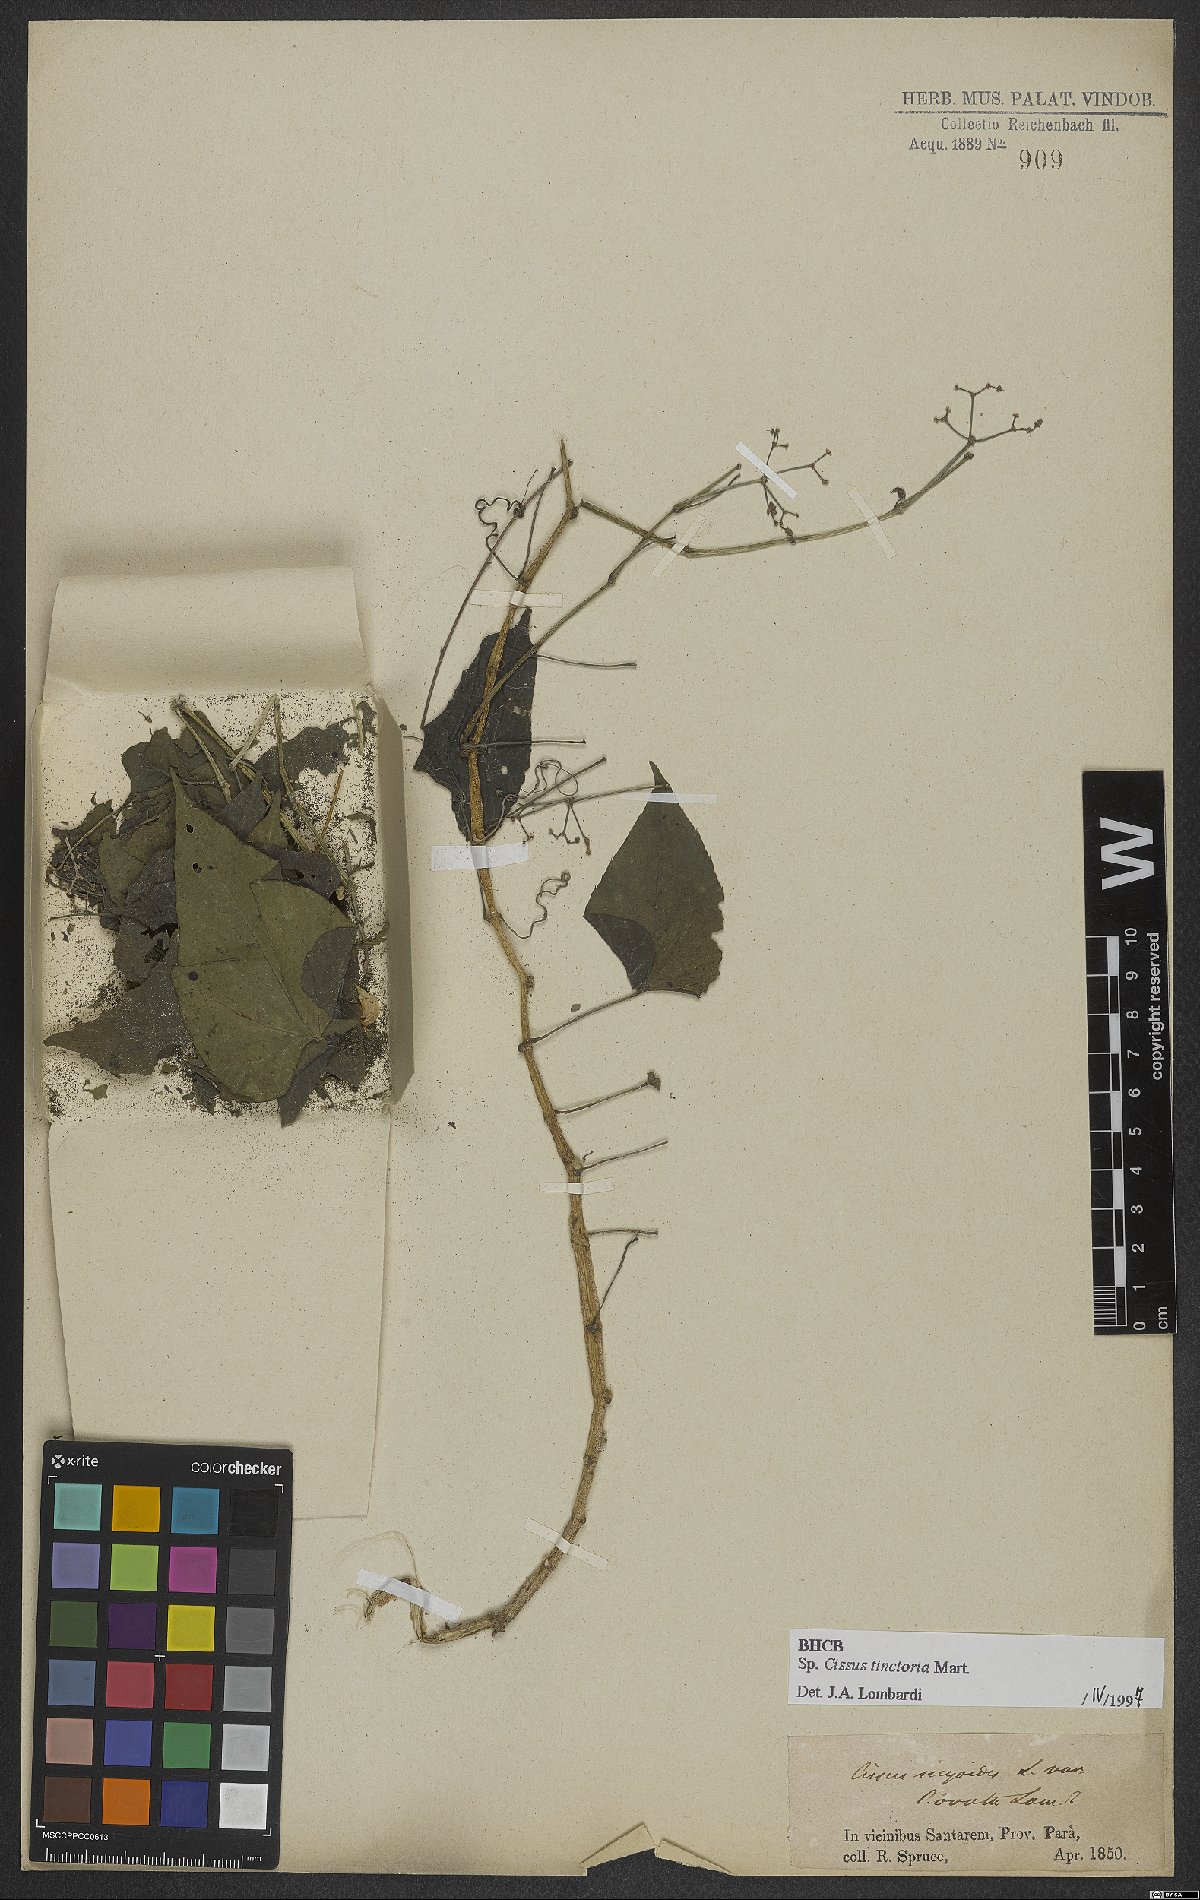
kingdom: Plantae
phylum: Tracheophyta
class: Magnoliopsida
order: Vitales
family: Vitaceae
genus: Cissus
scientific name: Cissus tinctoria
